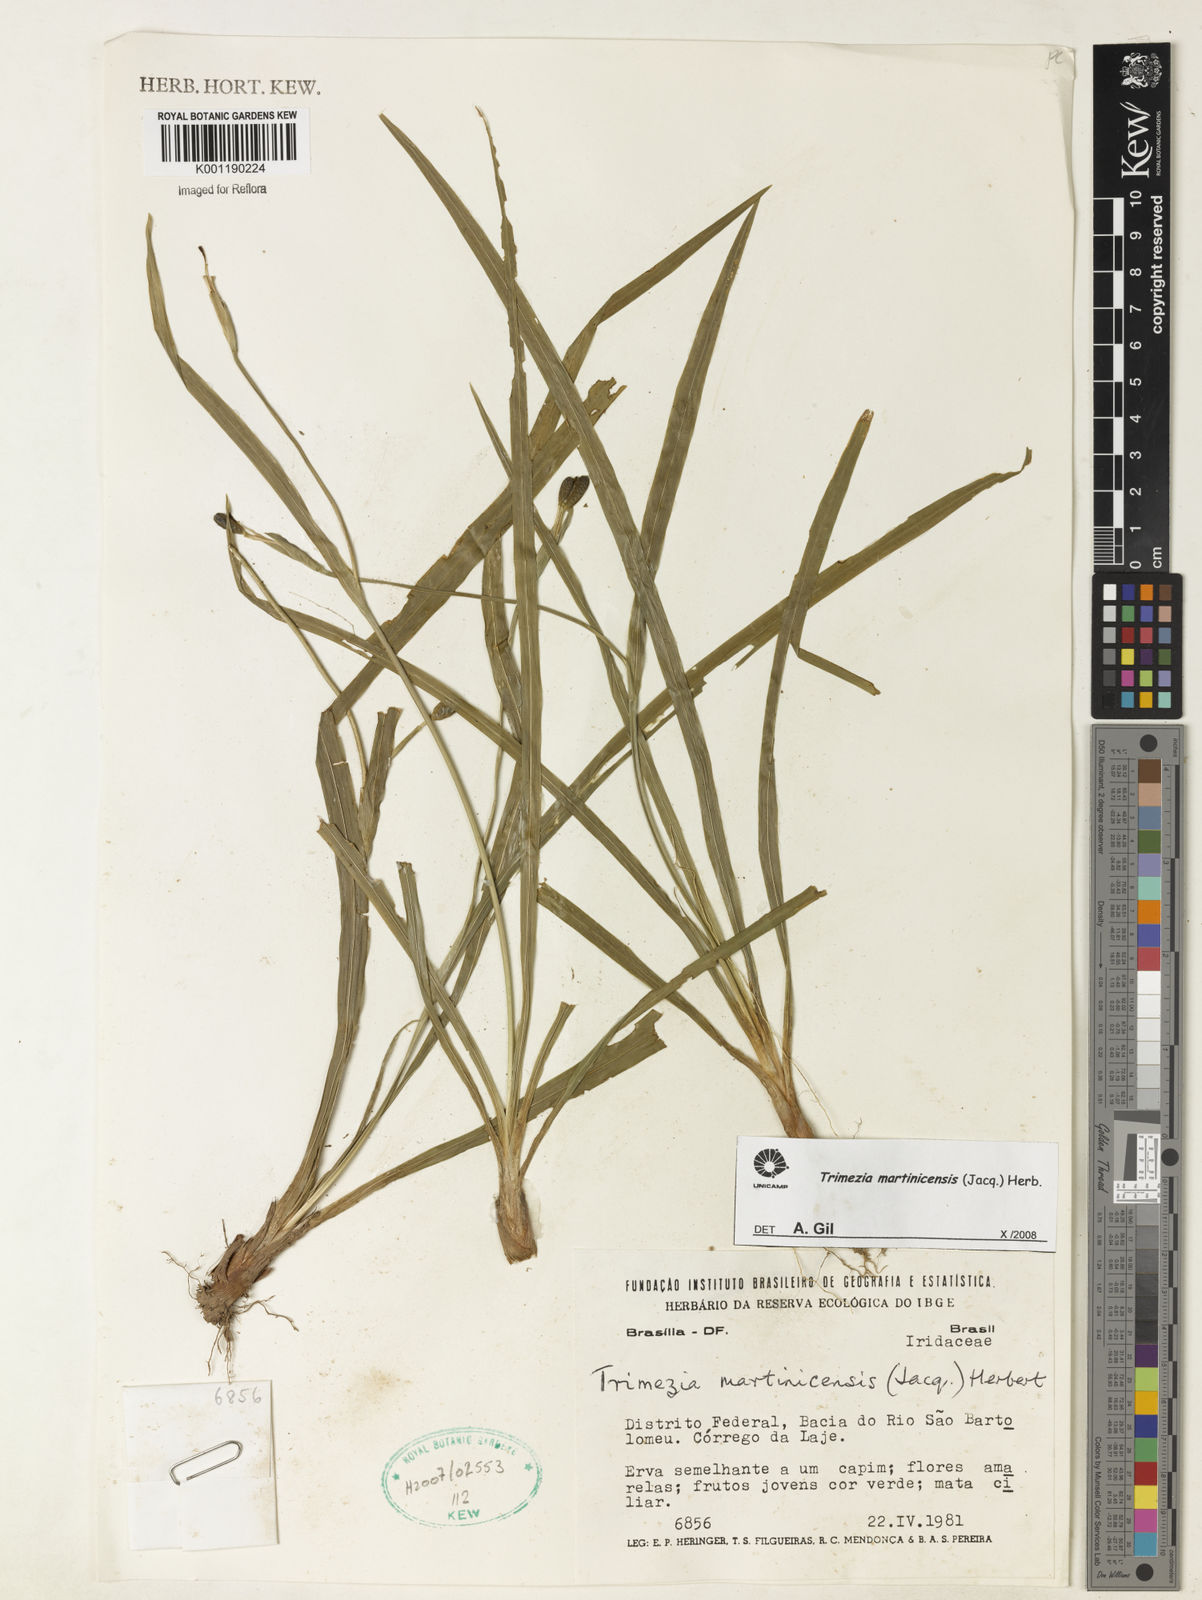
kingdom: Plantae
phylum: Tracheophyta
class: Liliopsida
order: Asparagales
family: Iridaceae
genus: Trimezia
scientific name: Trimezia martinicensis
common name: Martinique trimezia
